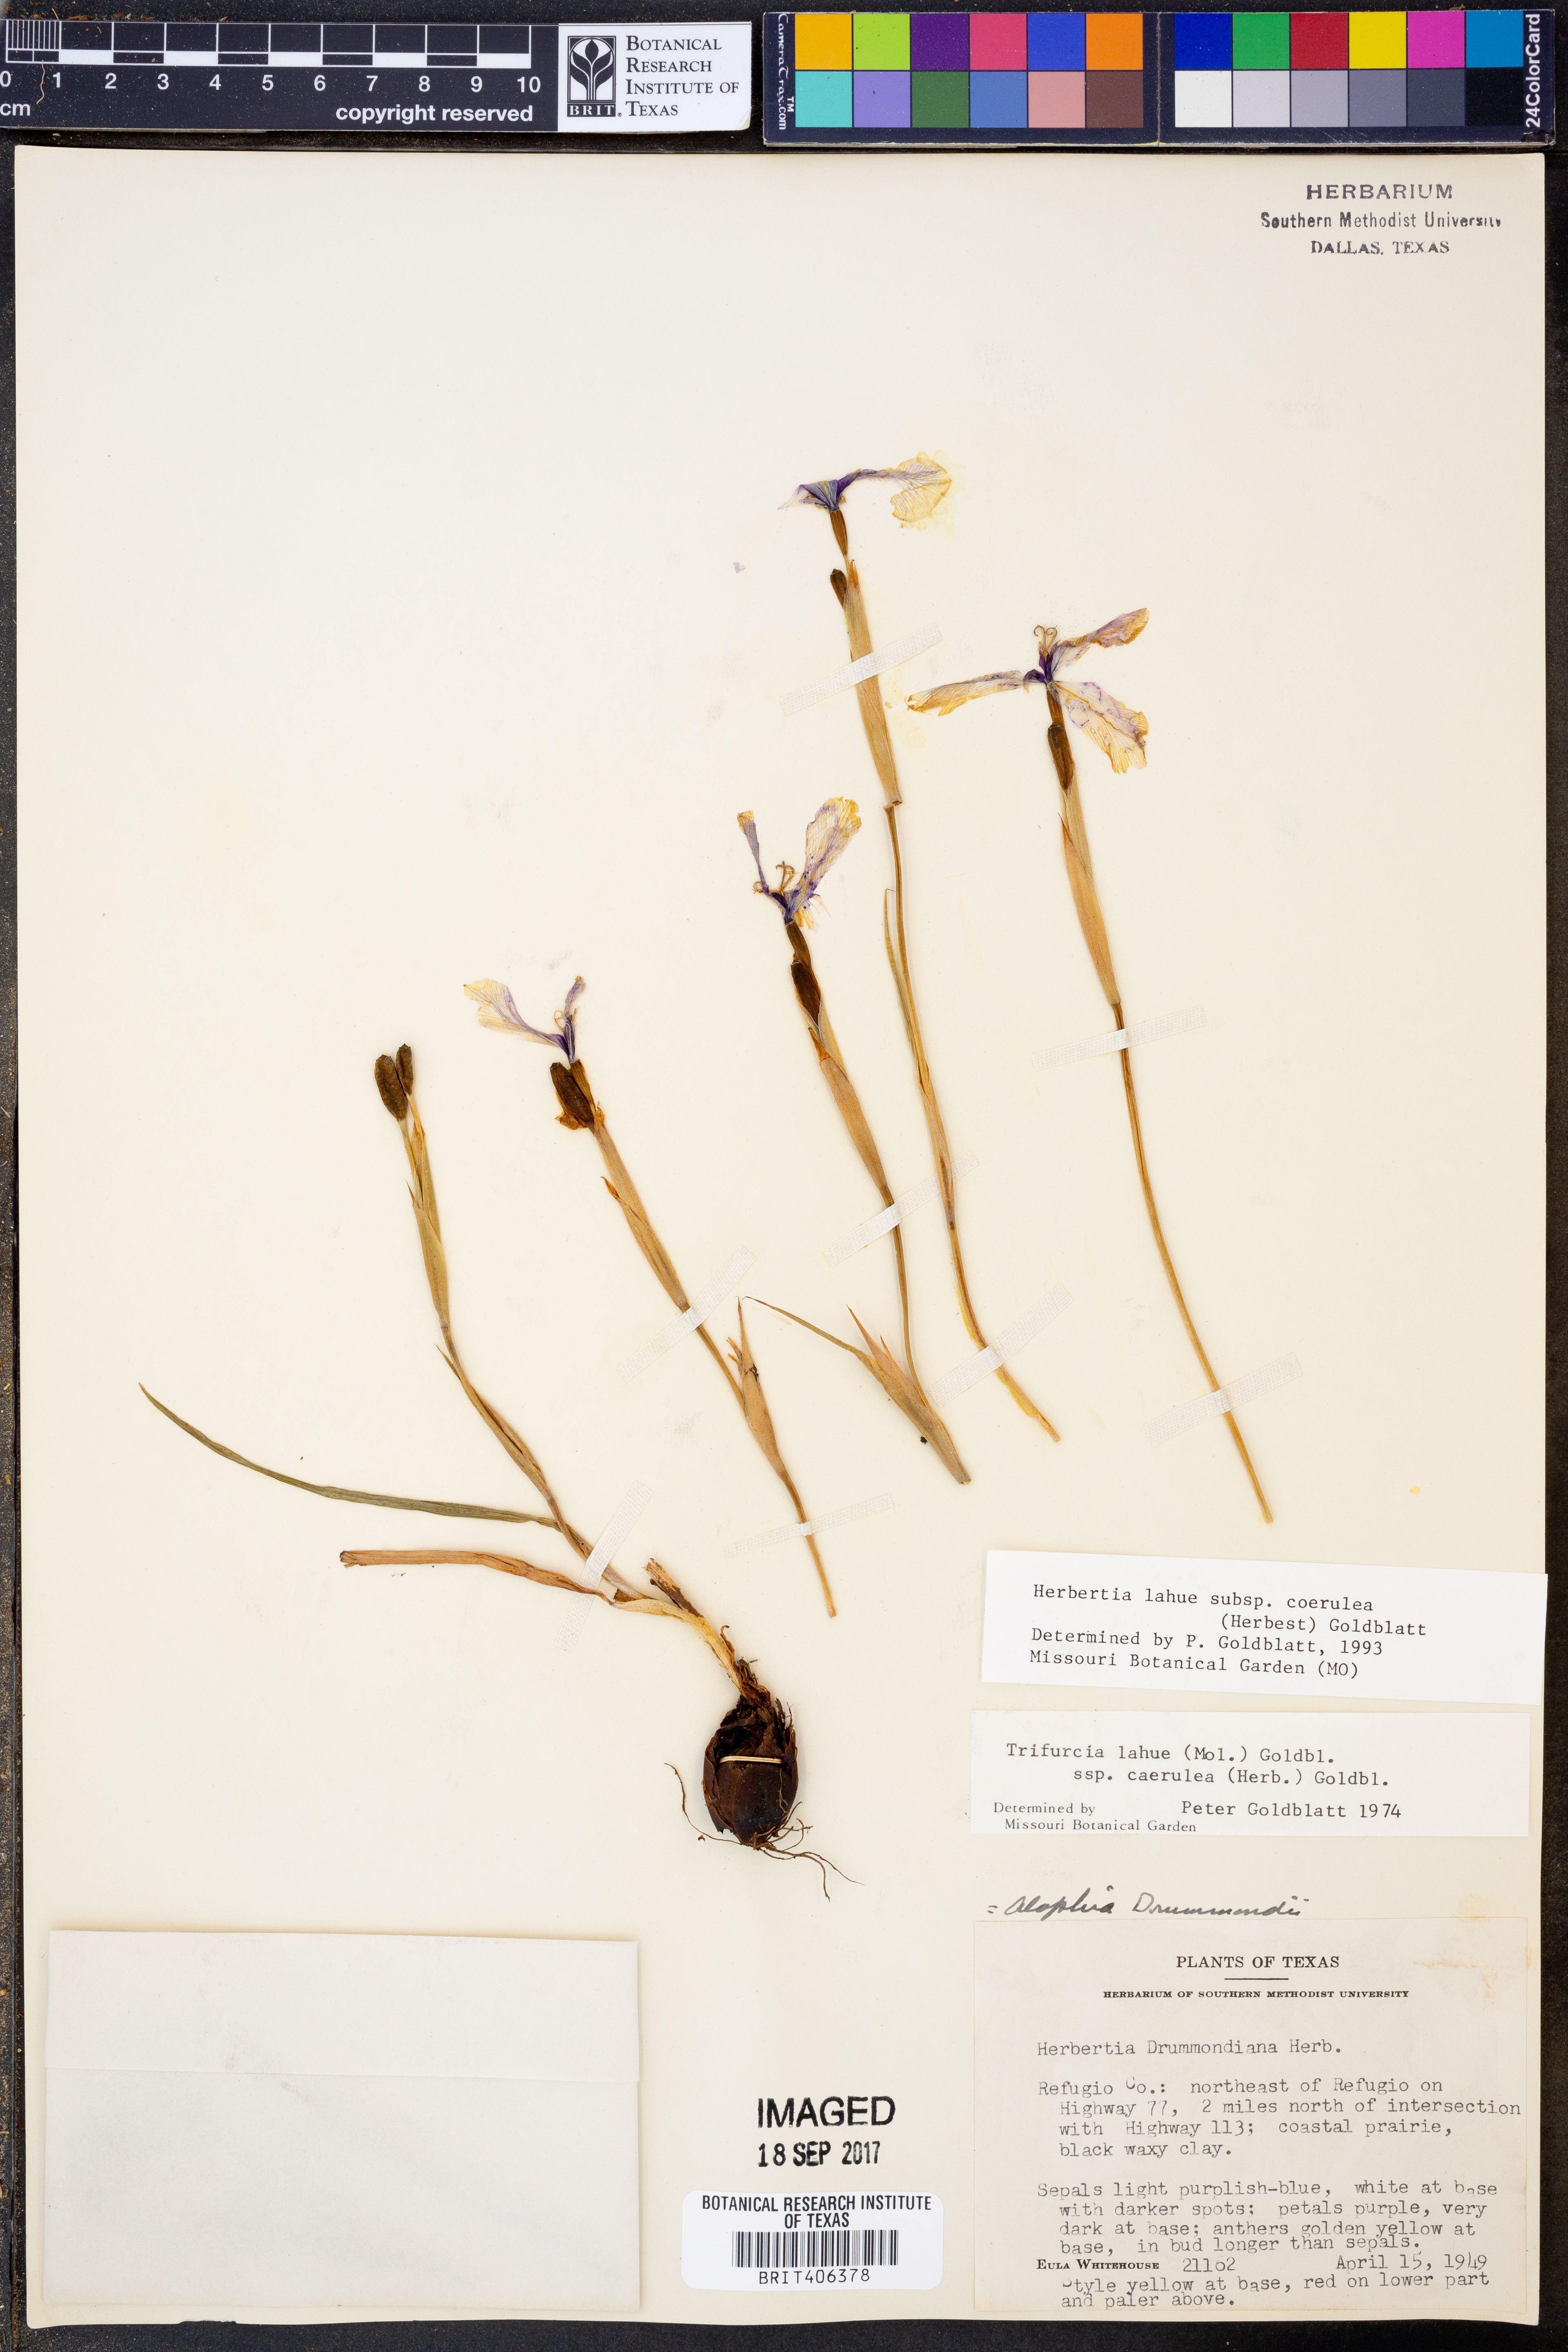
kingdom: Plantae
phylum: Tracheophyta
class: Liliopsida
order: Asparagales
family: Iridaceae
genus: Herbertia
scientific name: Herbertia lahue
